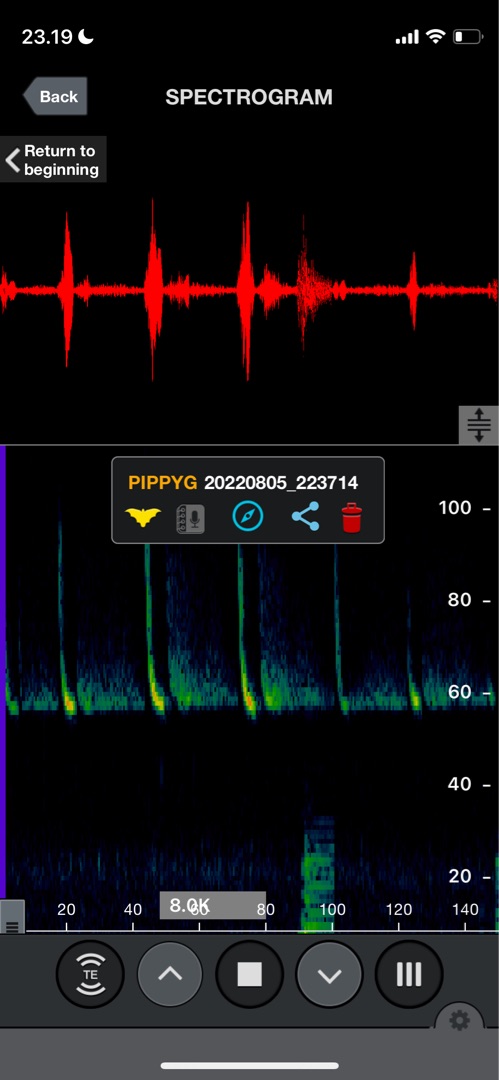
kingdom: Animalia
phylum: Chordata
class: Mammalia
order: Chiroptera
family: Vespertilionidae
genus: Pipistrellus
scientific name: Pipistrellus pygmaeus
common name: Dværgflagermus
